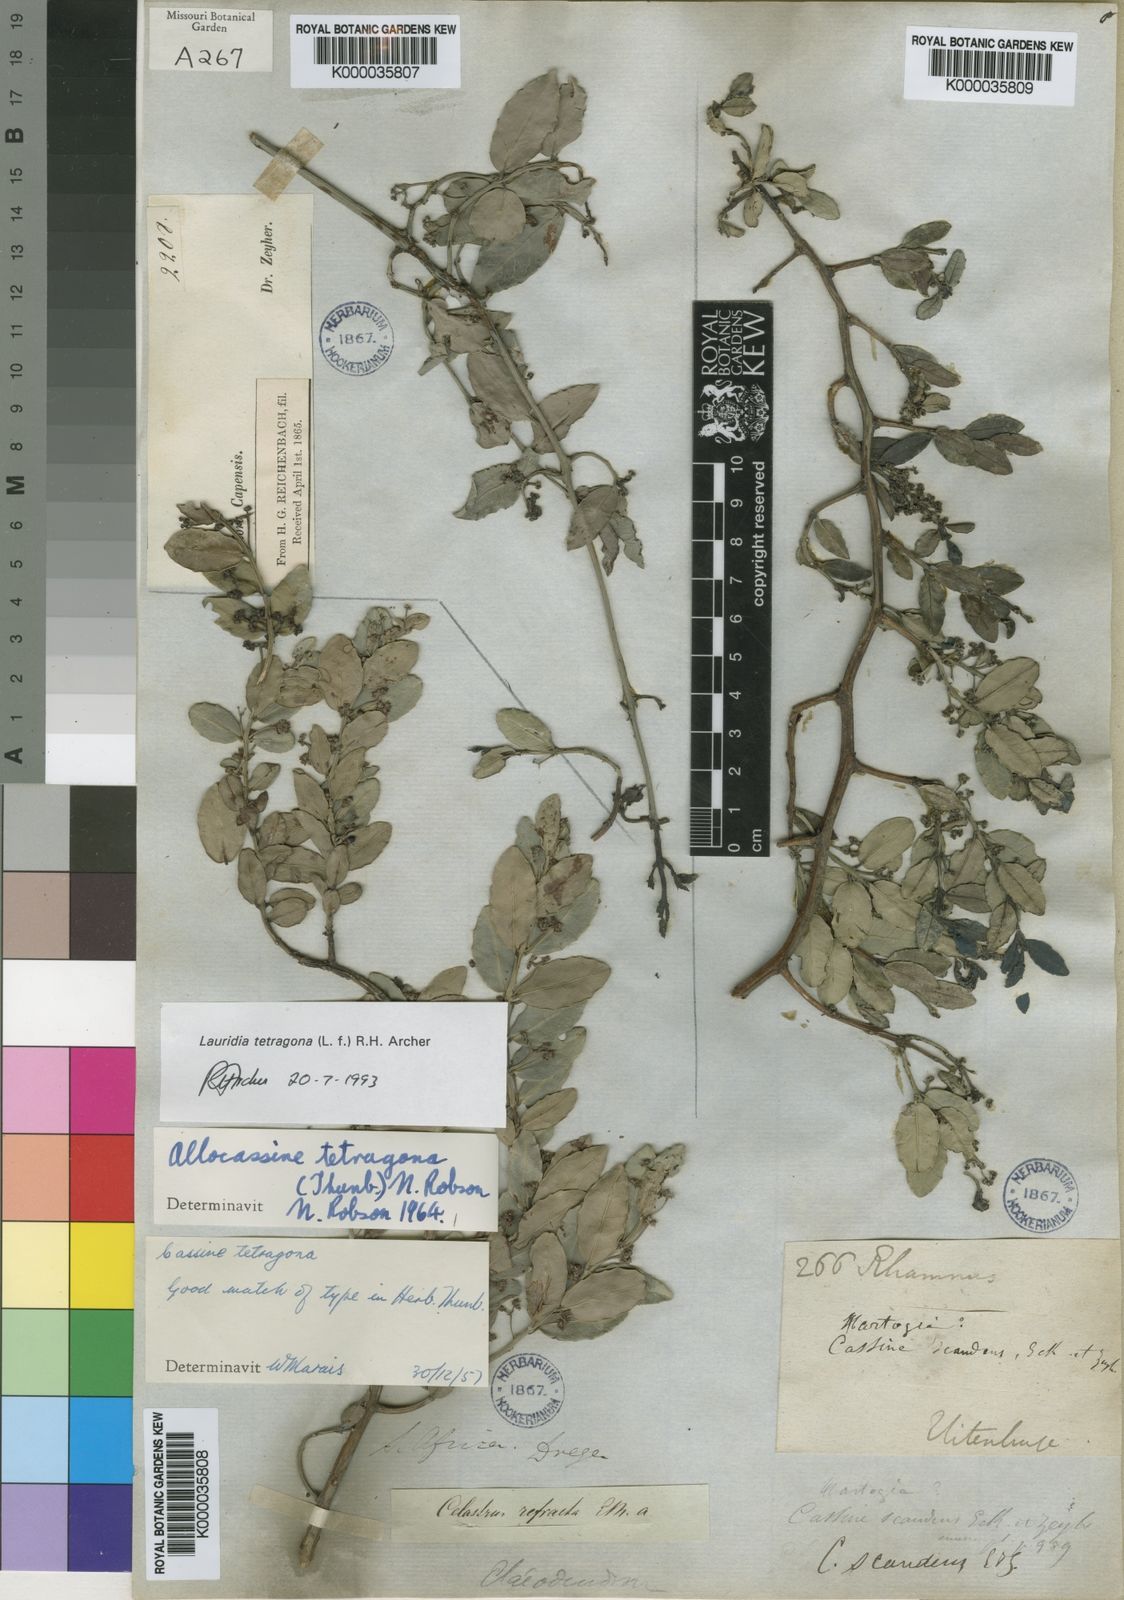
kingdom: Plantae
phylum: Tracheophyta
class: Magnoliopsida
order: Celastrales
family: Celastraceae
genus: Lauridia
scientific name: Lauridia tetragona
